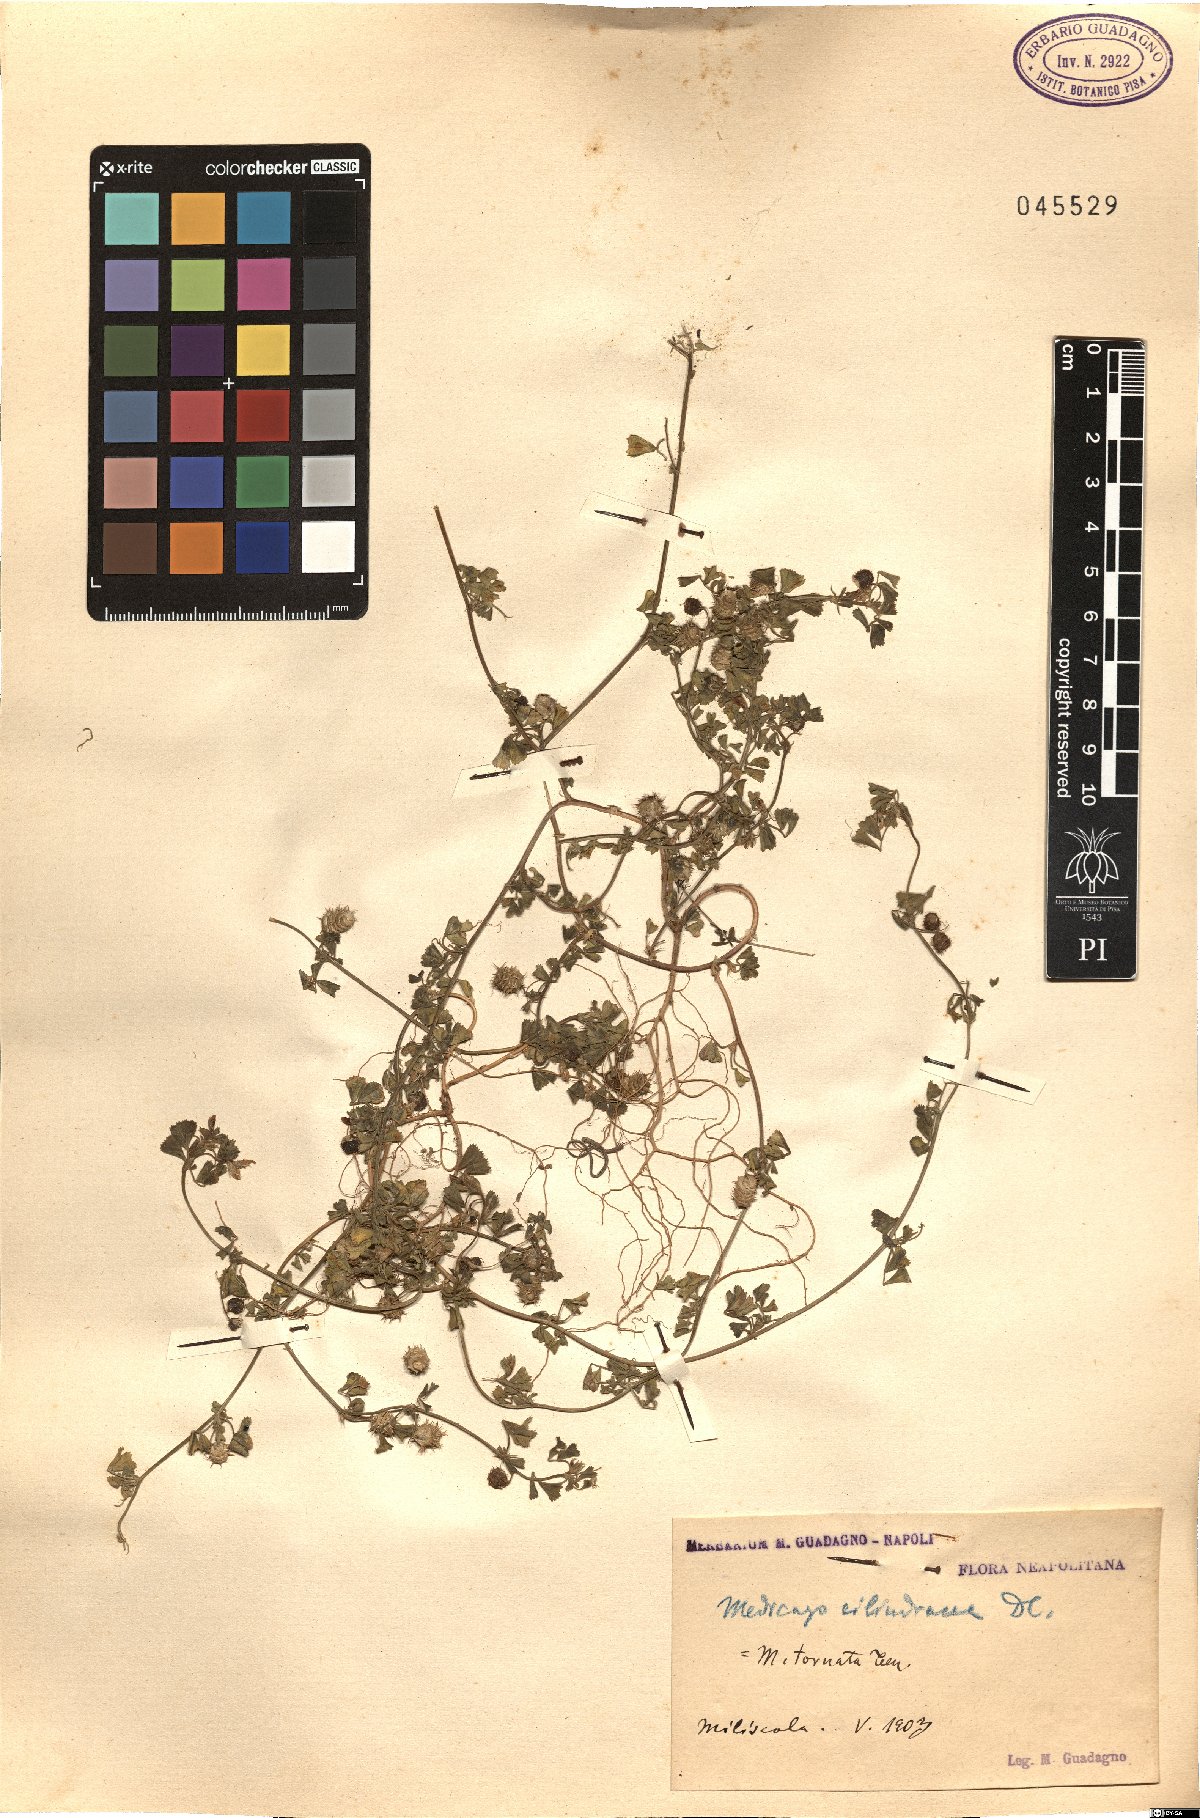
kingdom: Plantae
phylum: Tracheophyta
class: Magnoliopsida
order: Fabales
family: Fabaceae
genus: Medicago
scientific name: Medicago tornata
